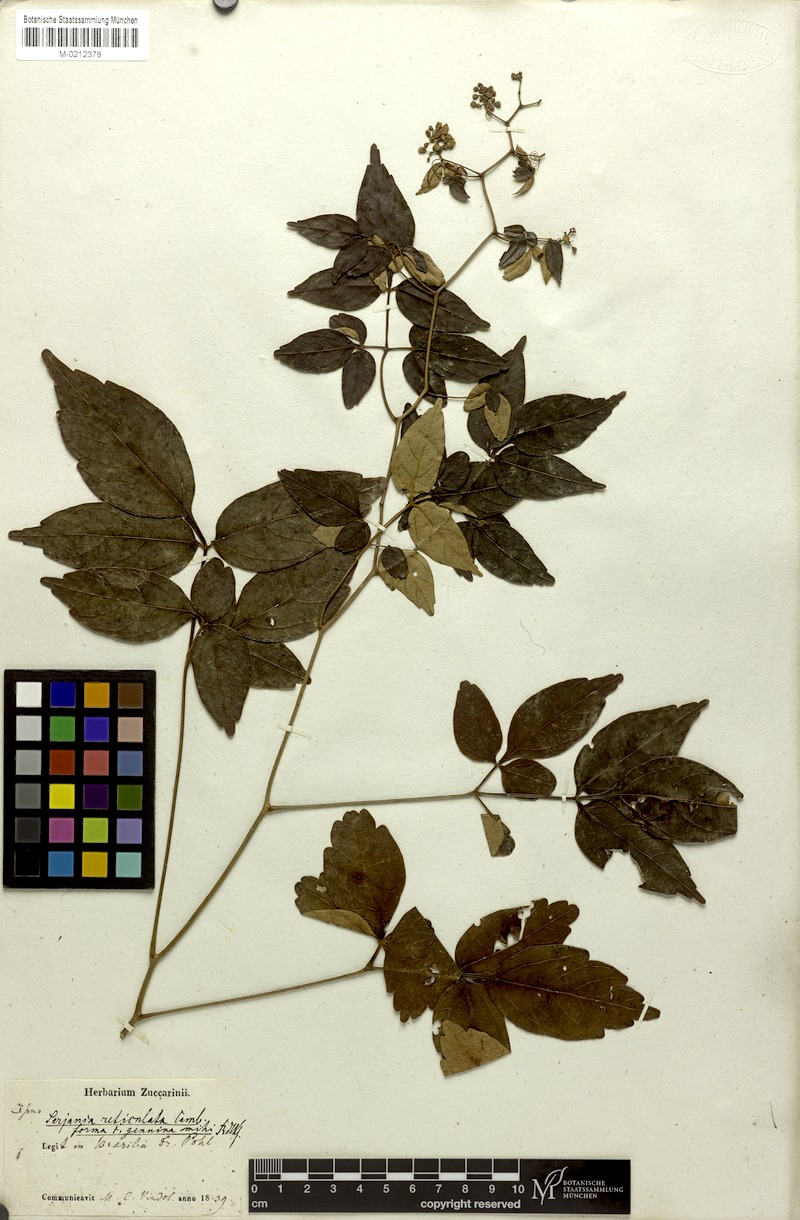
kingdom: Plantae
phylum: Tracheophyta
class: Magnoliopsida
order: Sapindales
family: Sapindaceae
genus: Serjania
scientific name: Serjania reticulata
